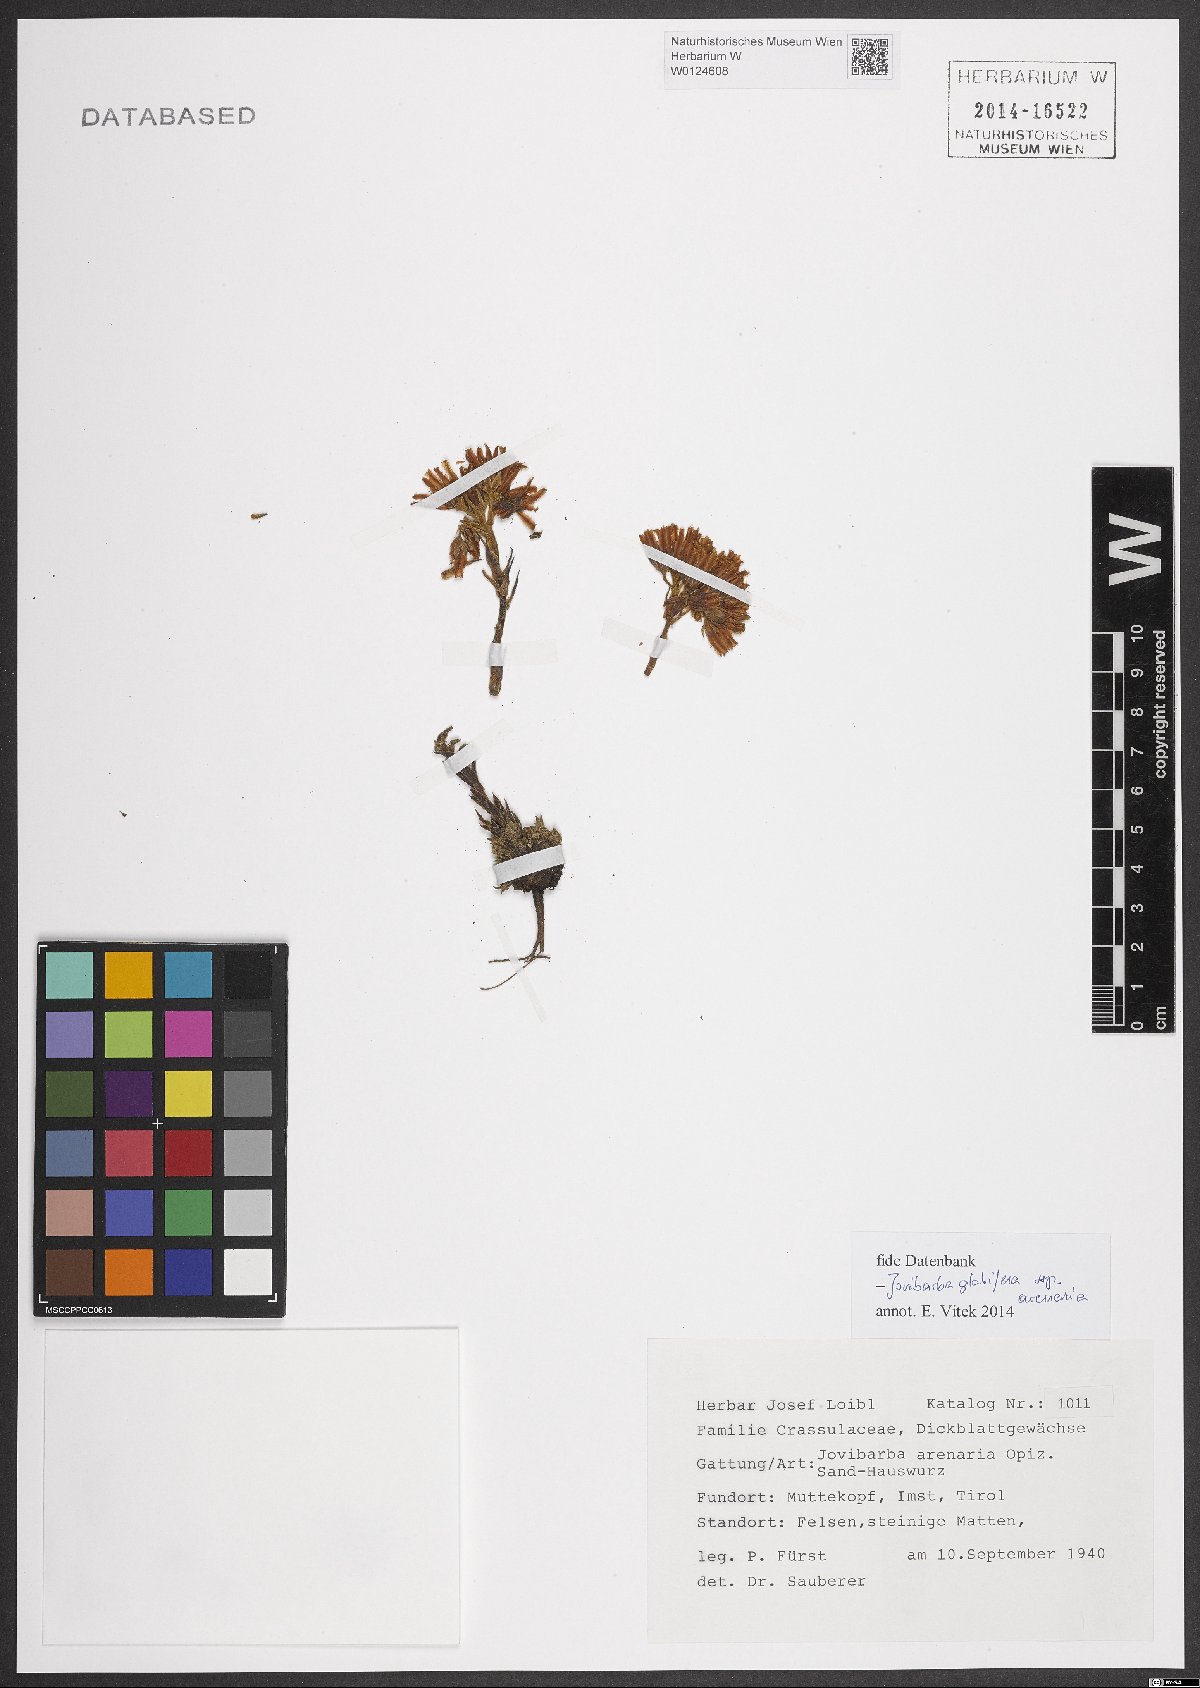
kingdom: Plantae
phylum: Tracheophyta
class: Magnoliopsida
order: Saxifragales
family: Crassulaceae
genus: Sempervivum
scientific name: Sempervivum globiferum
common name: Rolling hen-and-chicks
